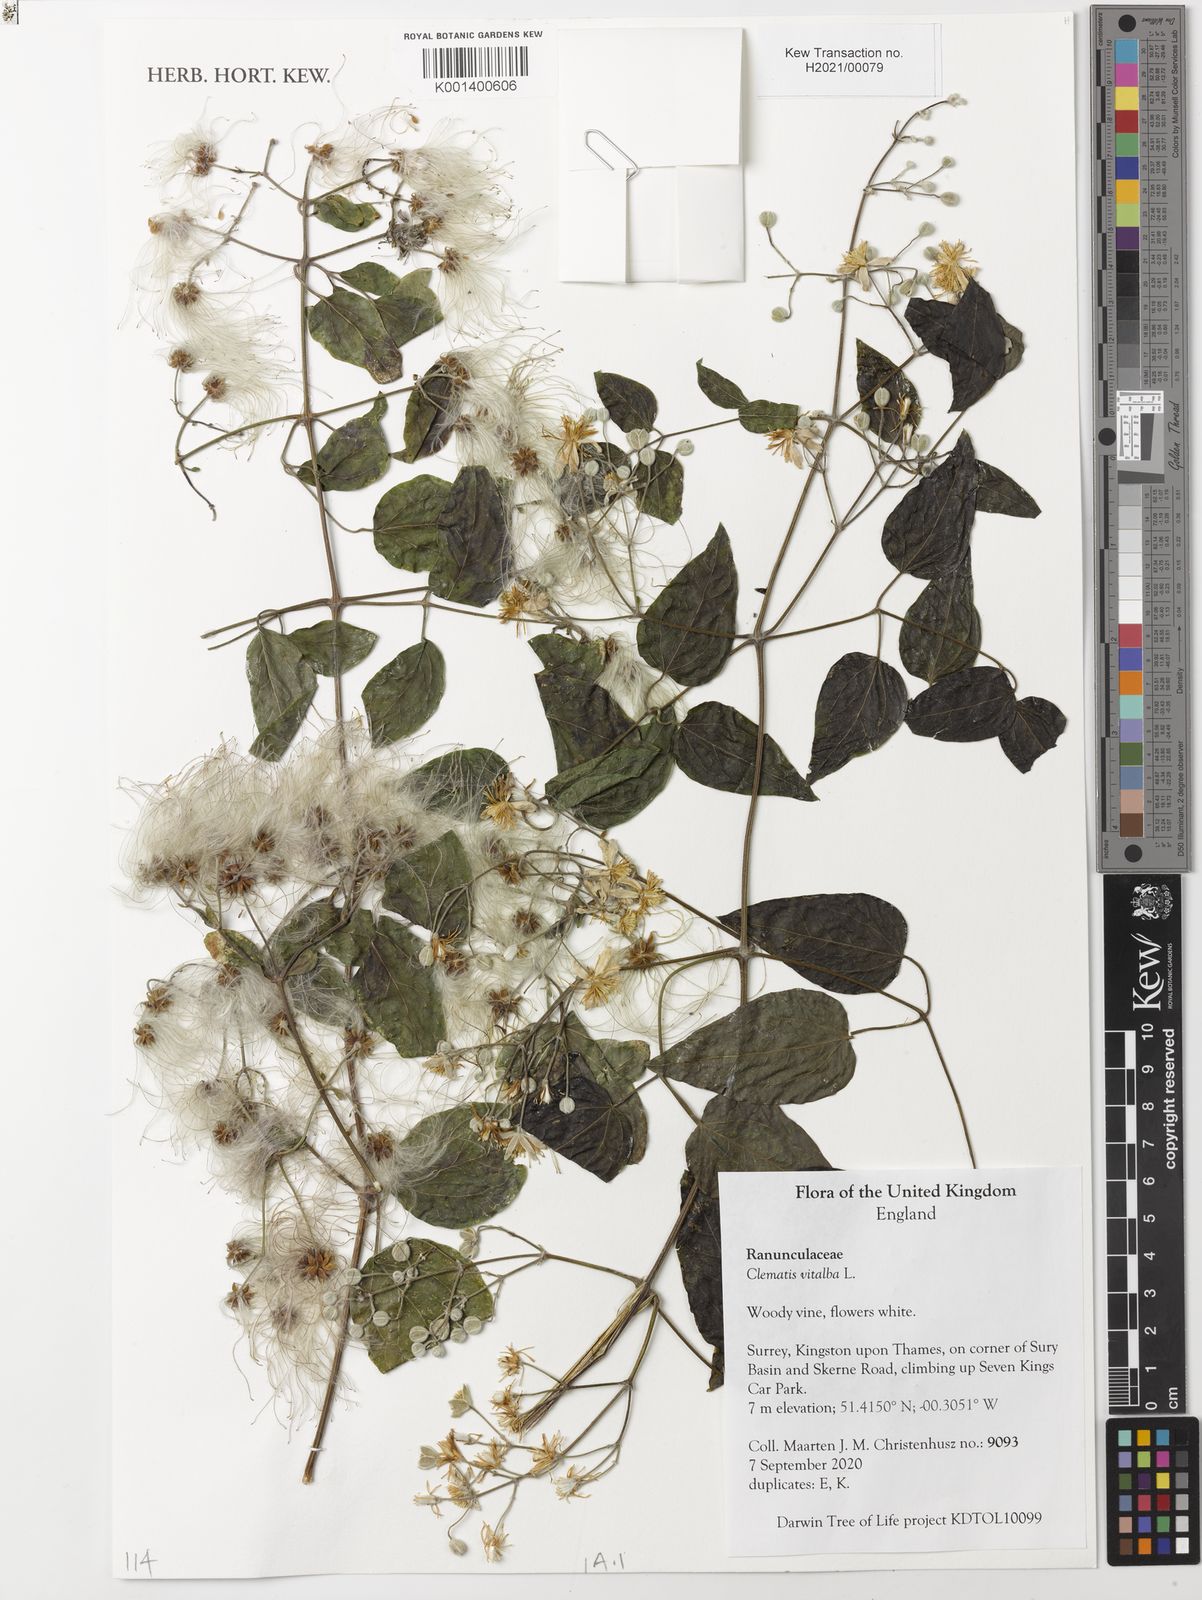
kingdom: Plantae
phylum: Tracheophyta
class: Magnoliopsida
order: Ranunculales
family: Ranunculaceae
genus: Clematis
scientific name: Clematis
